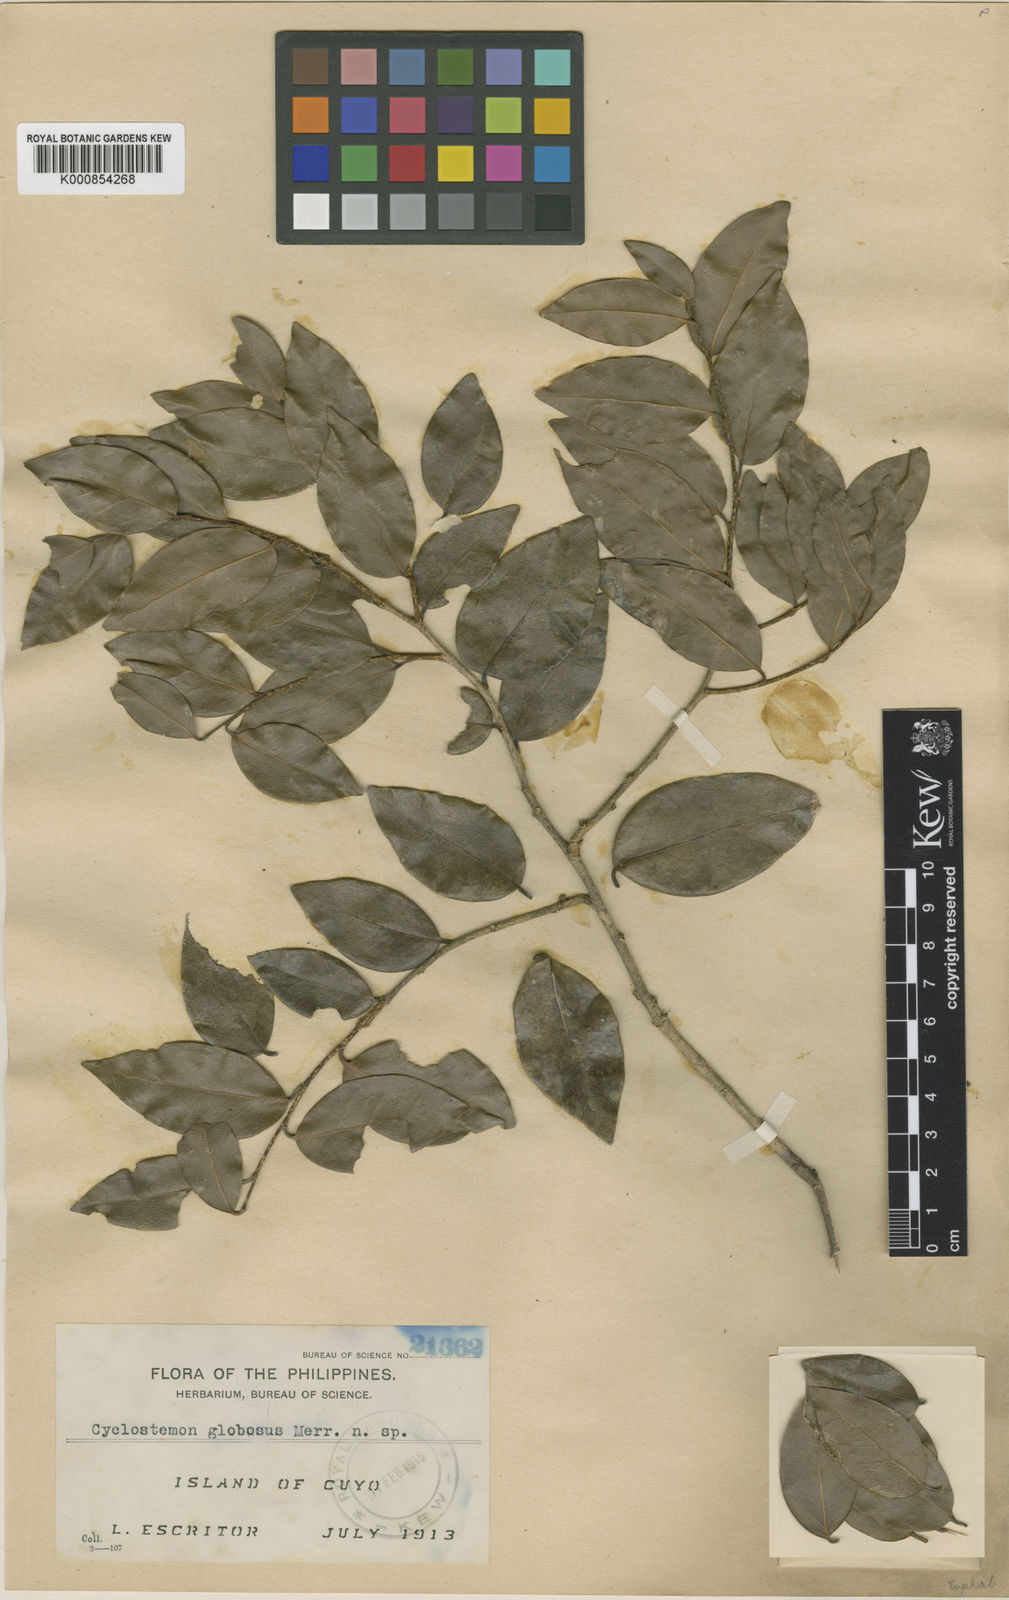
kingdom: Plantae
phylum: Tracheophyta
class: Magnoliopsida
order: Malpighiales
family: Putranjivaceae
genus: Drypetes
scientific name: Drypetes globosa
